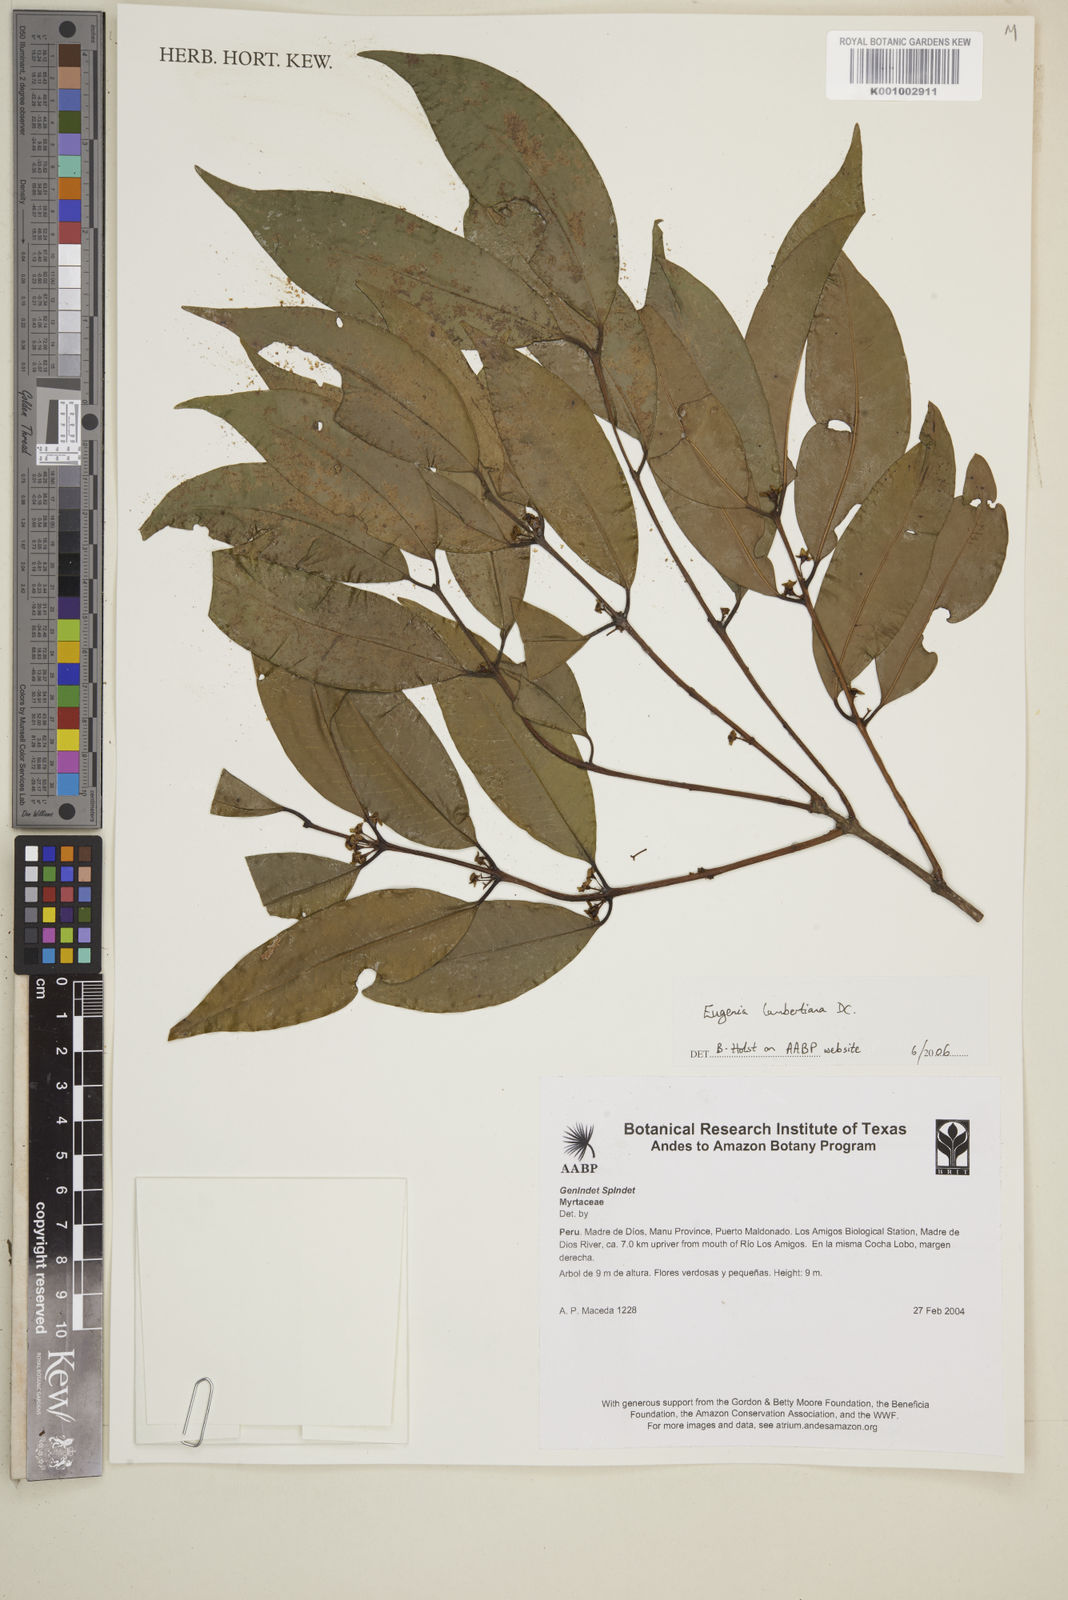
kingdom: Plantae
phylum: Tracheophyta
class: Magnoliopsida
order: Myrtales
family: Myrtaceae
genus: Eugenia
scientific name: Eugenia lambertiana
